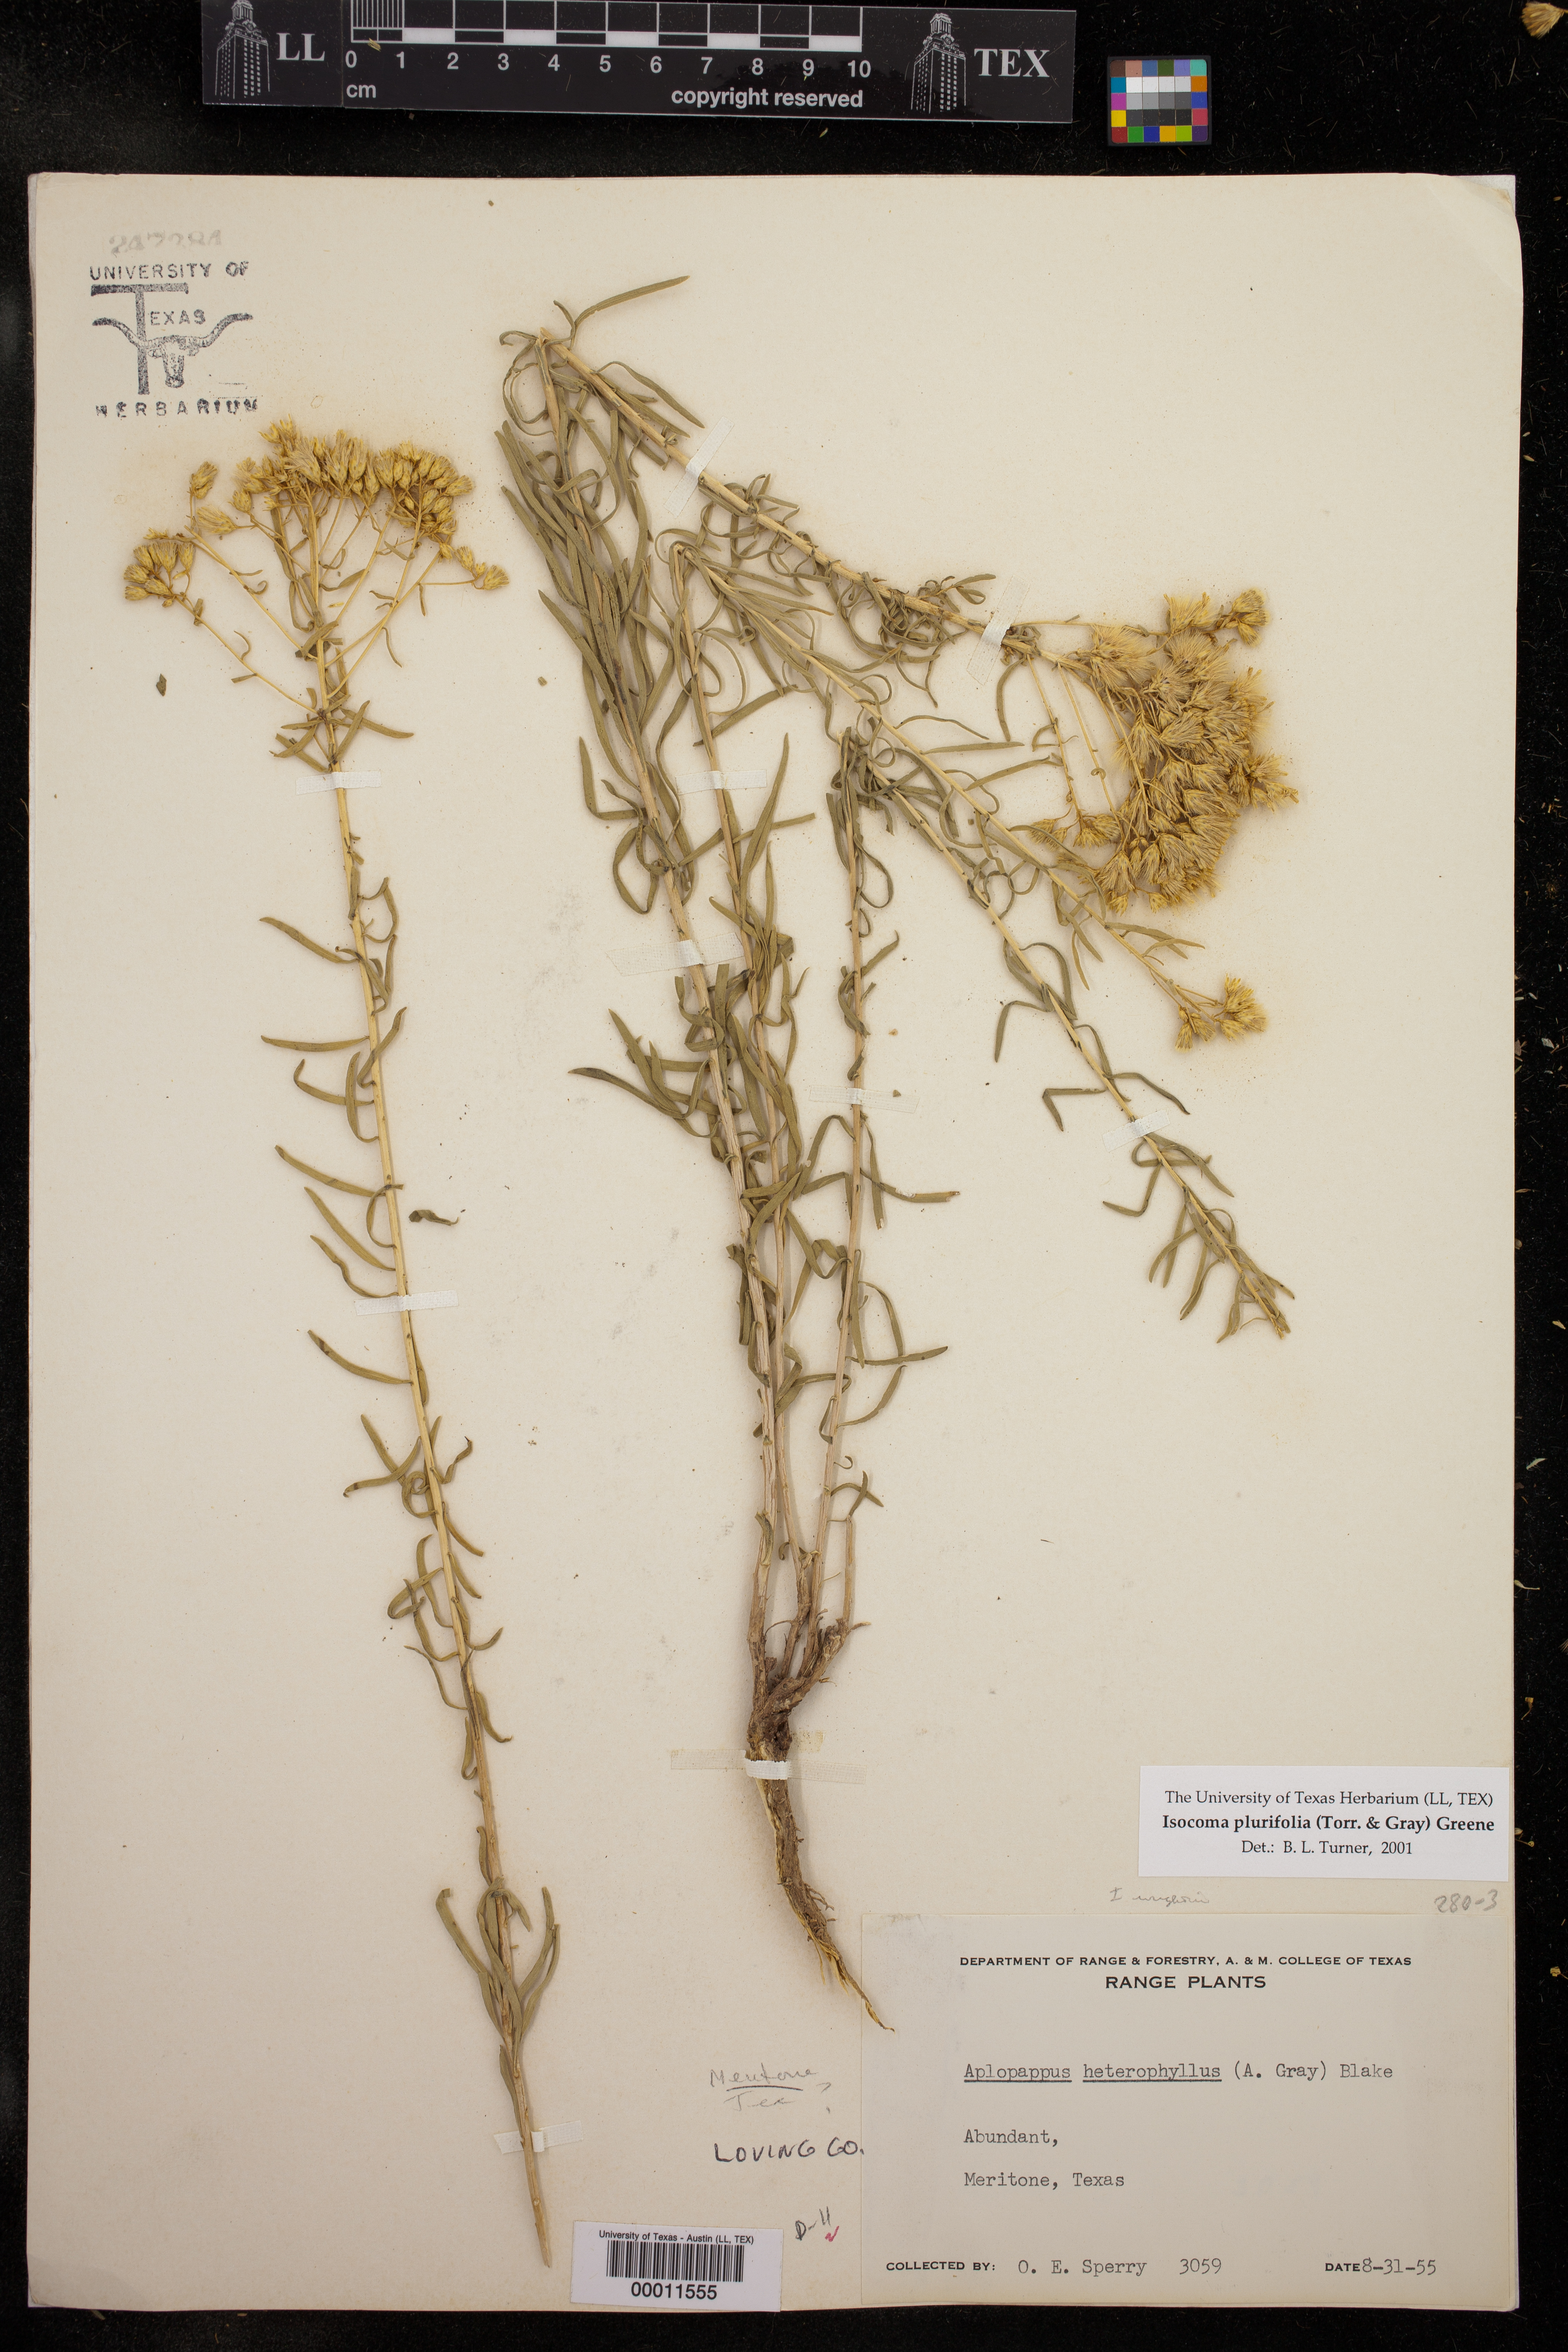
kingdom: Plantae
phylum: Tracheophyta
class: Magnoliopsida
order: Asterales
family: Asteraceae
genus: Isocoma
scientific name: Isocoma pluriflora
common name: Southern jimmyweed
